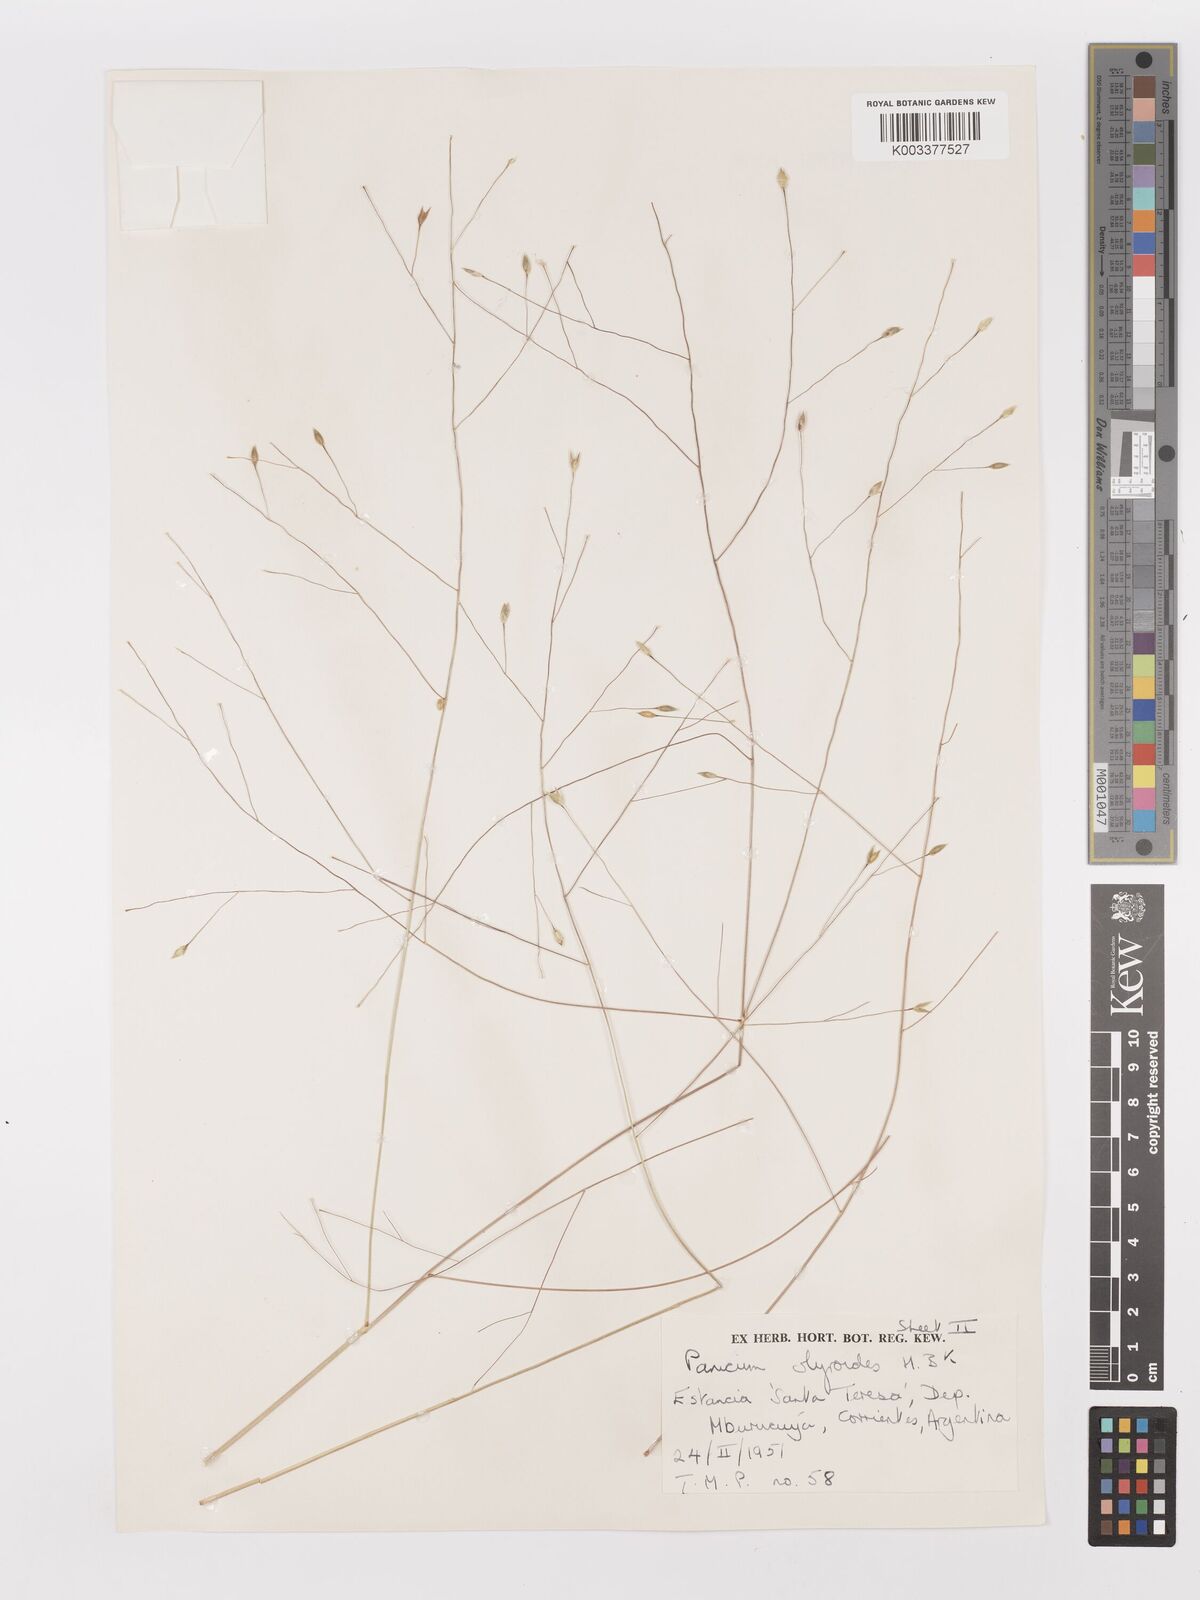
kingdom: Plantae
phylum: Tracheophyta
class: Liliopsida
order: Poales
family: Poaceae
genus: Panicum
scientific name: Panicum olyroides
